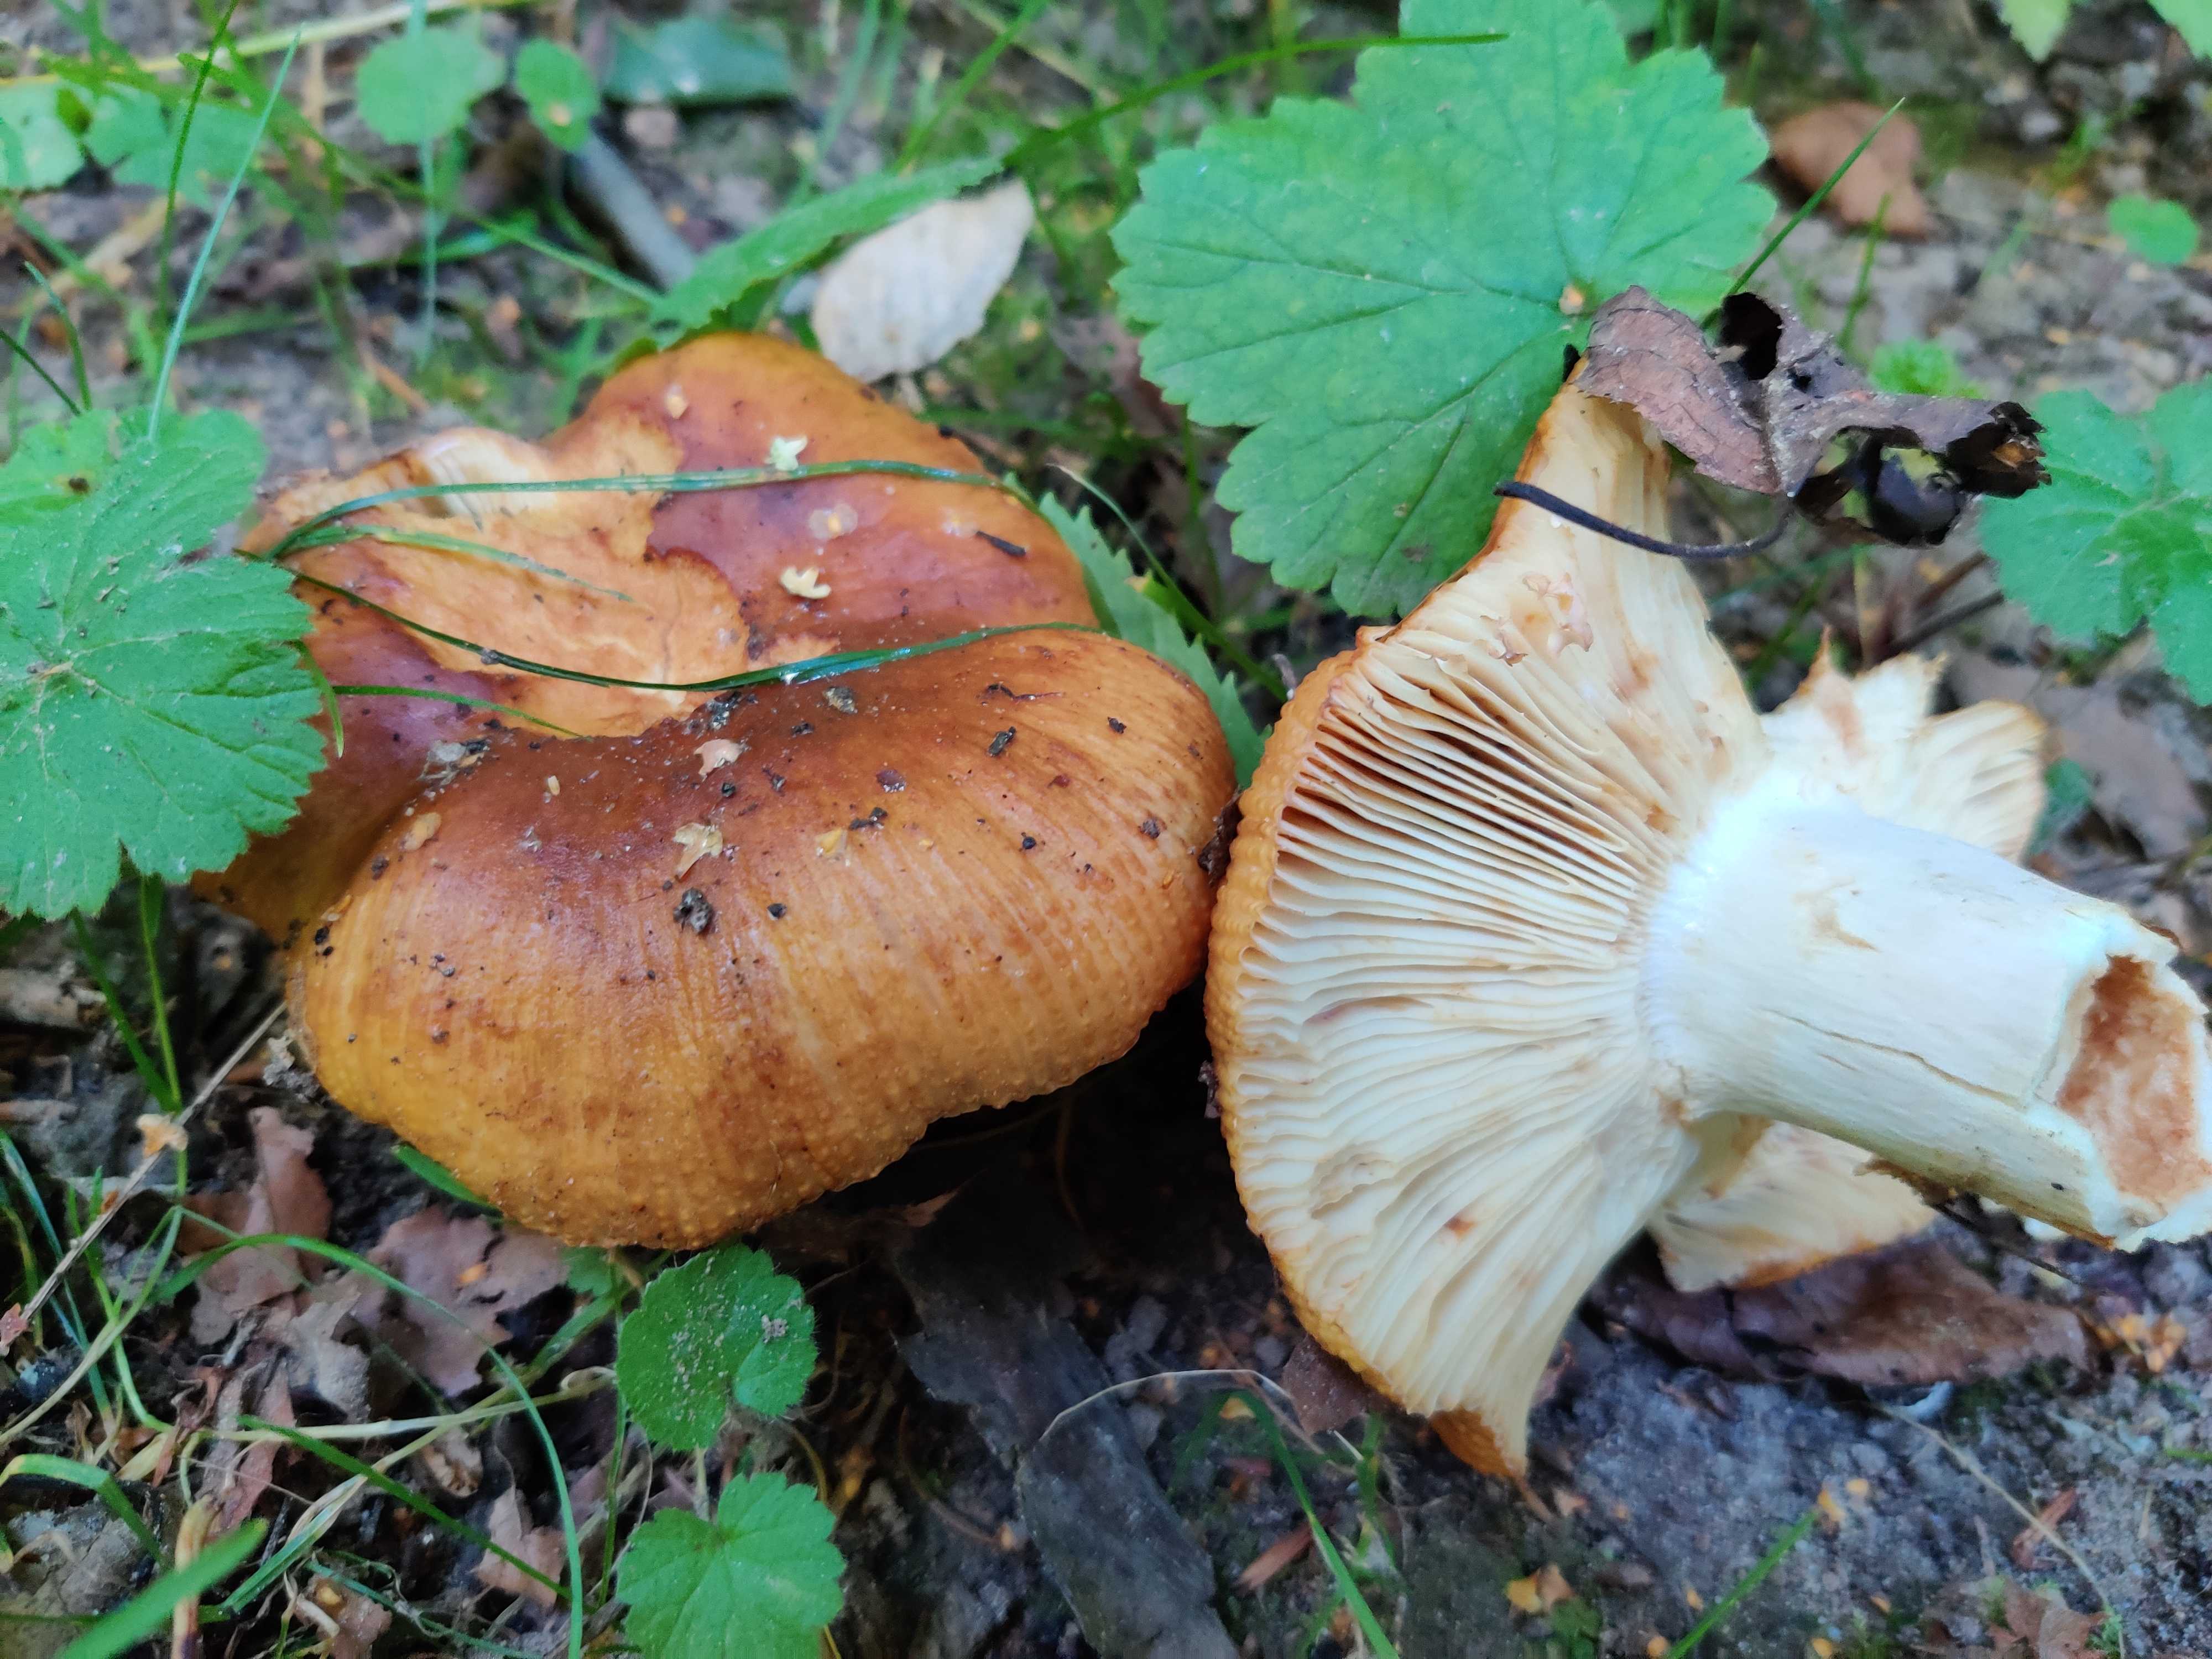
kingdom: Fungi
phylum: Basidiomycota
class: Agaricomycetes
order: Russulales
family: Russulaceae
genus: Russula
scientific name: Russula
